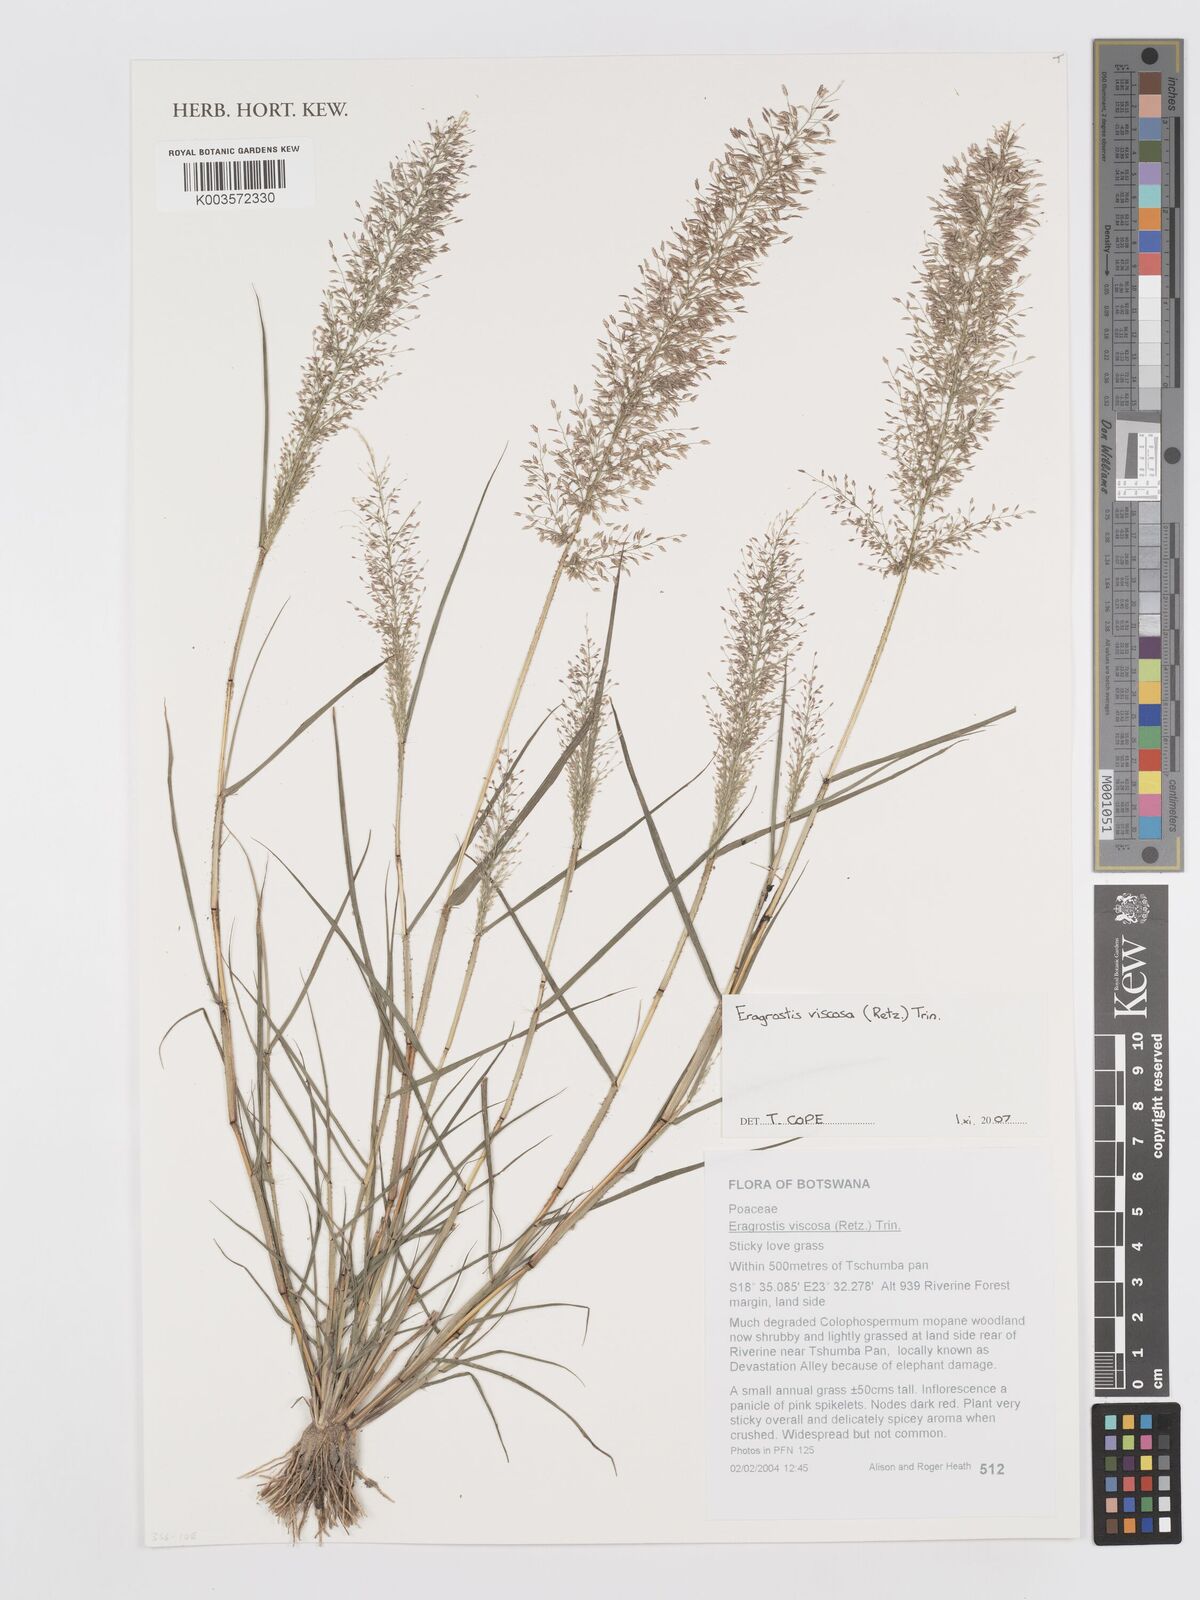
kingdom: Plantae
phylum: Tracheophyta
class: Liliopsida
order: Poales
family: Poaceae
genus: Eragrostis
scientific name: Eragrostis
